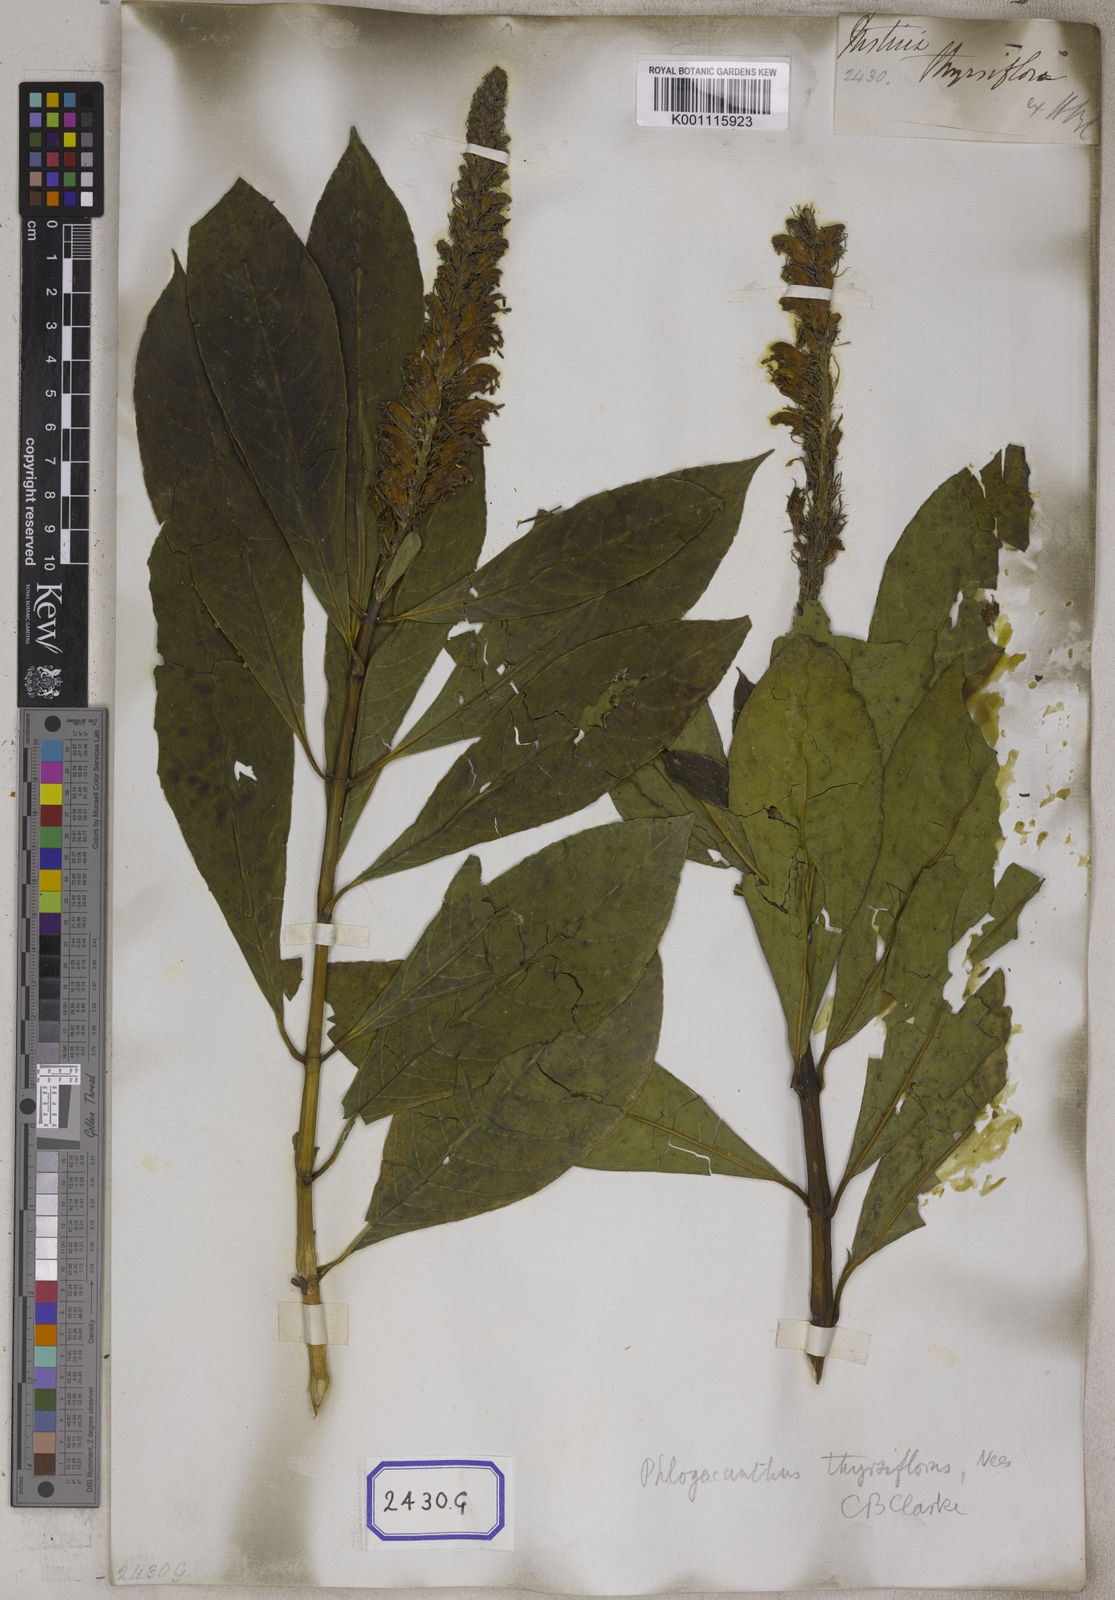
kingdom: Plantae
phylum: Tracheophyta
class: Magnoliopsida
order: Lamiales
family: Acanthaceae
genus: Justicia
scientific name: Justicia
